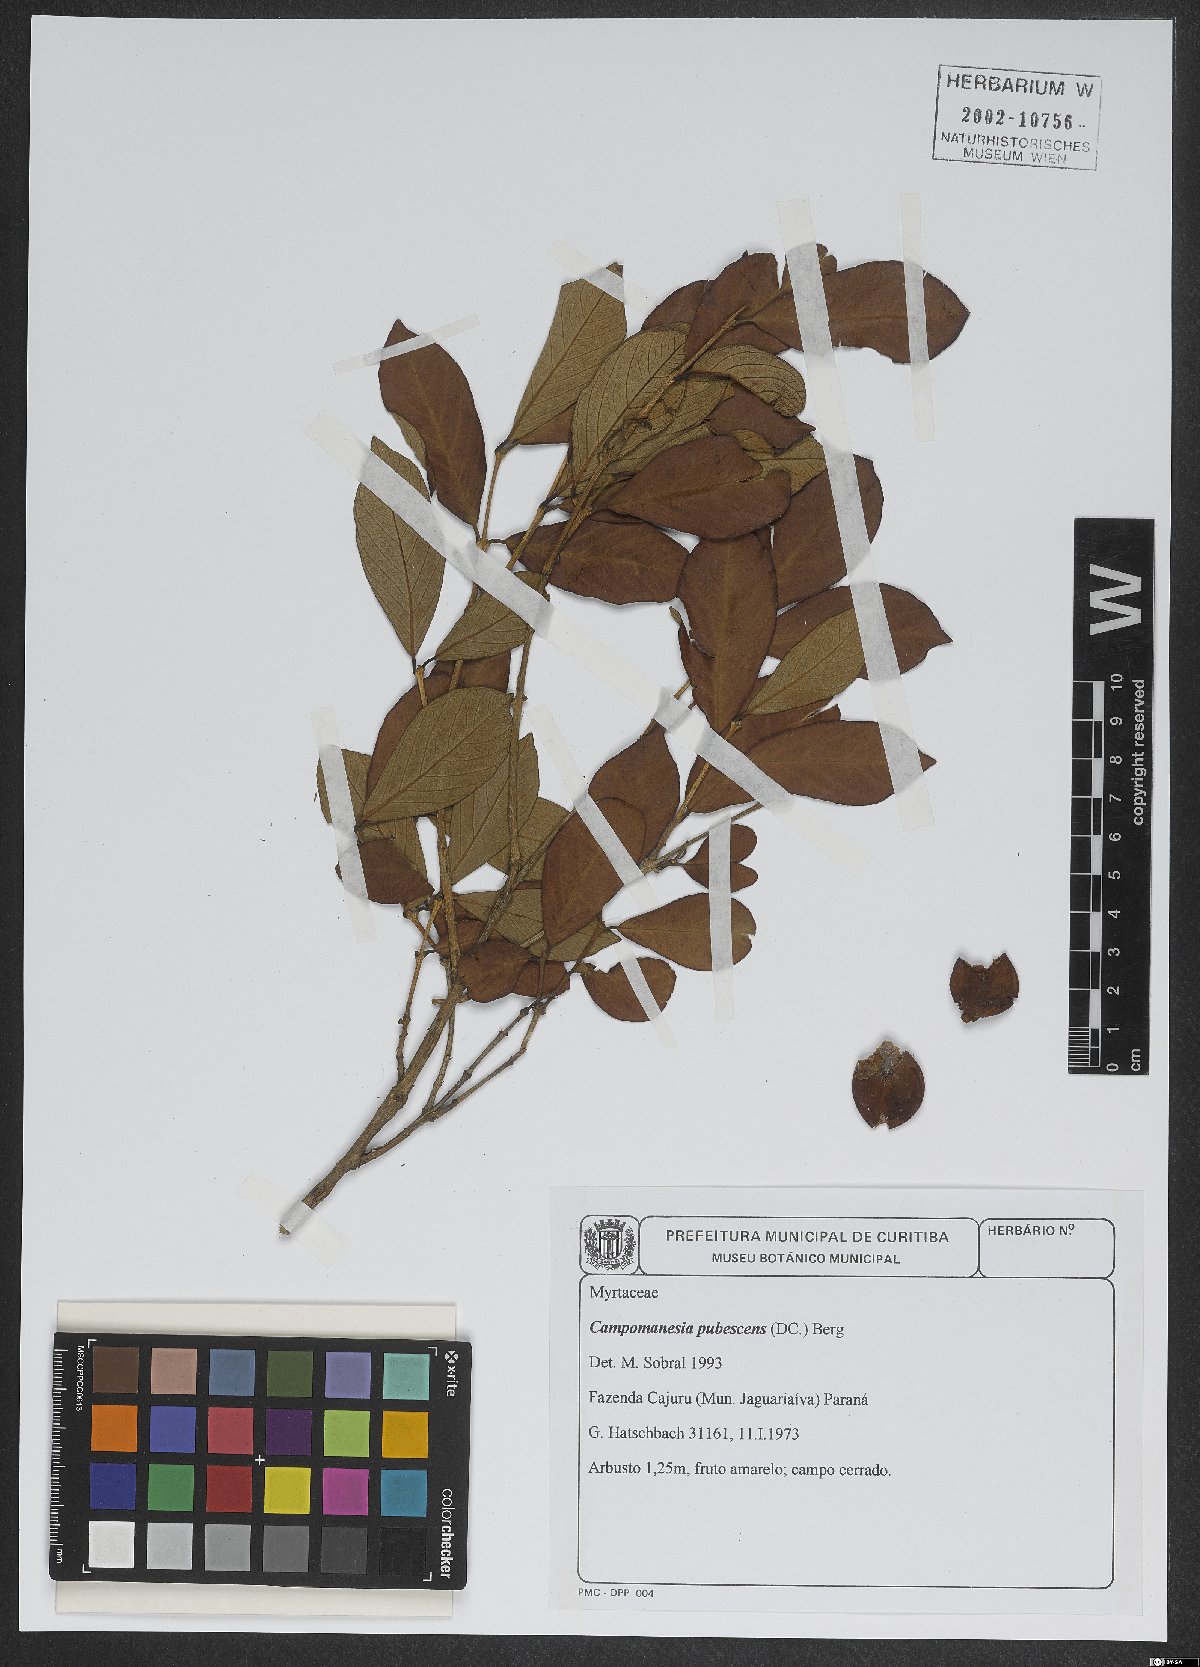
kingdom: Plantae
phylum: Tracheophyta
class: Magnoliopsida
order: Myrtales
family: Myrtaceae
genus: Campomanesia
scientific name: Campomanesia pubescens
